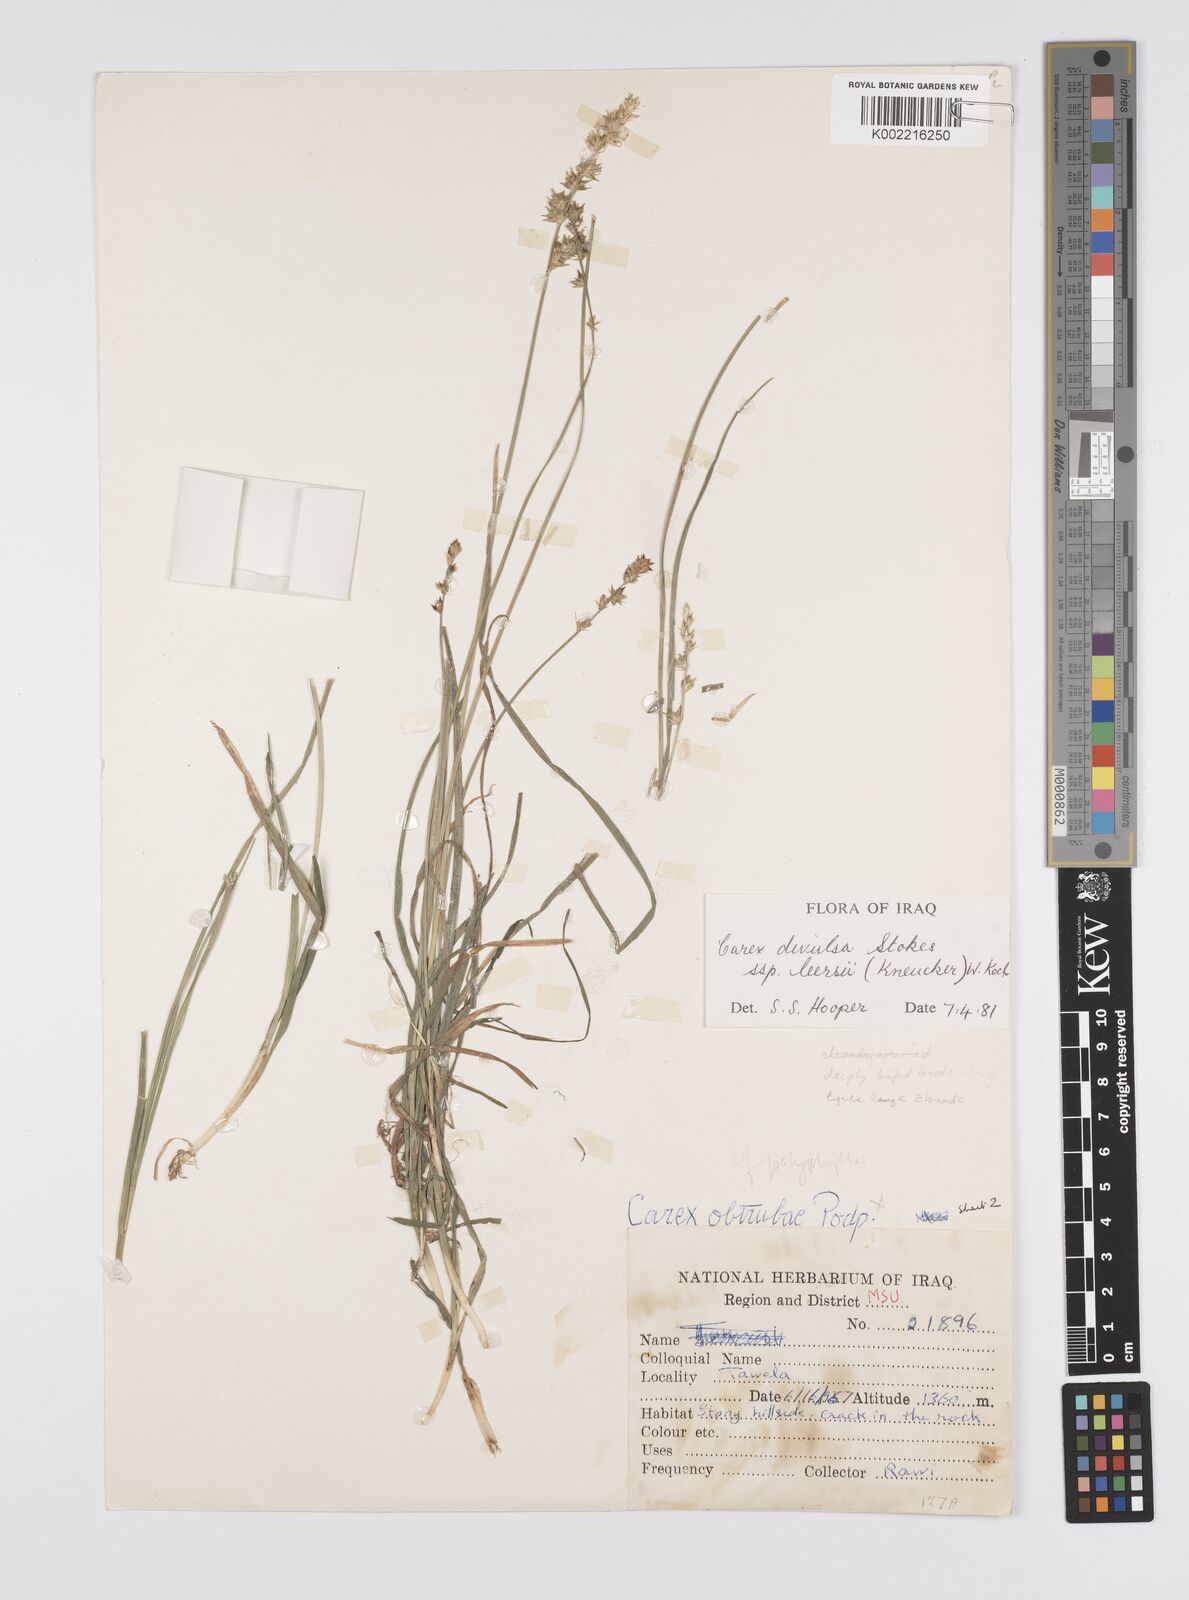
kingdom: Plantae
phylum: Tracheophyta
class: Liliopsida
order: Poales
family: Cyperaceae
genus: Carex
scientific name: Carex polyphylla
